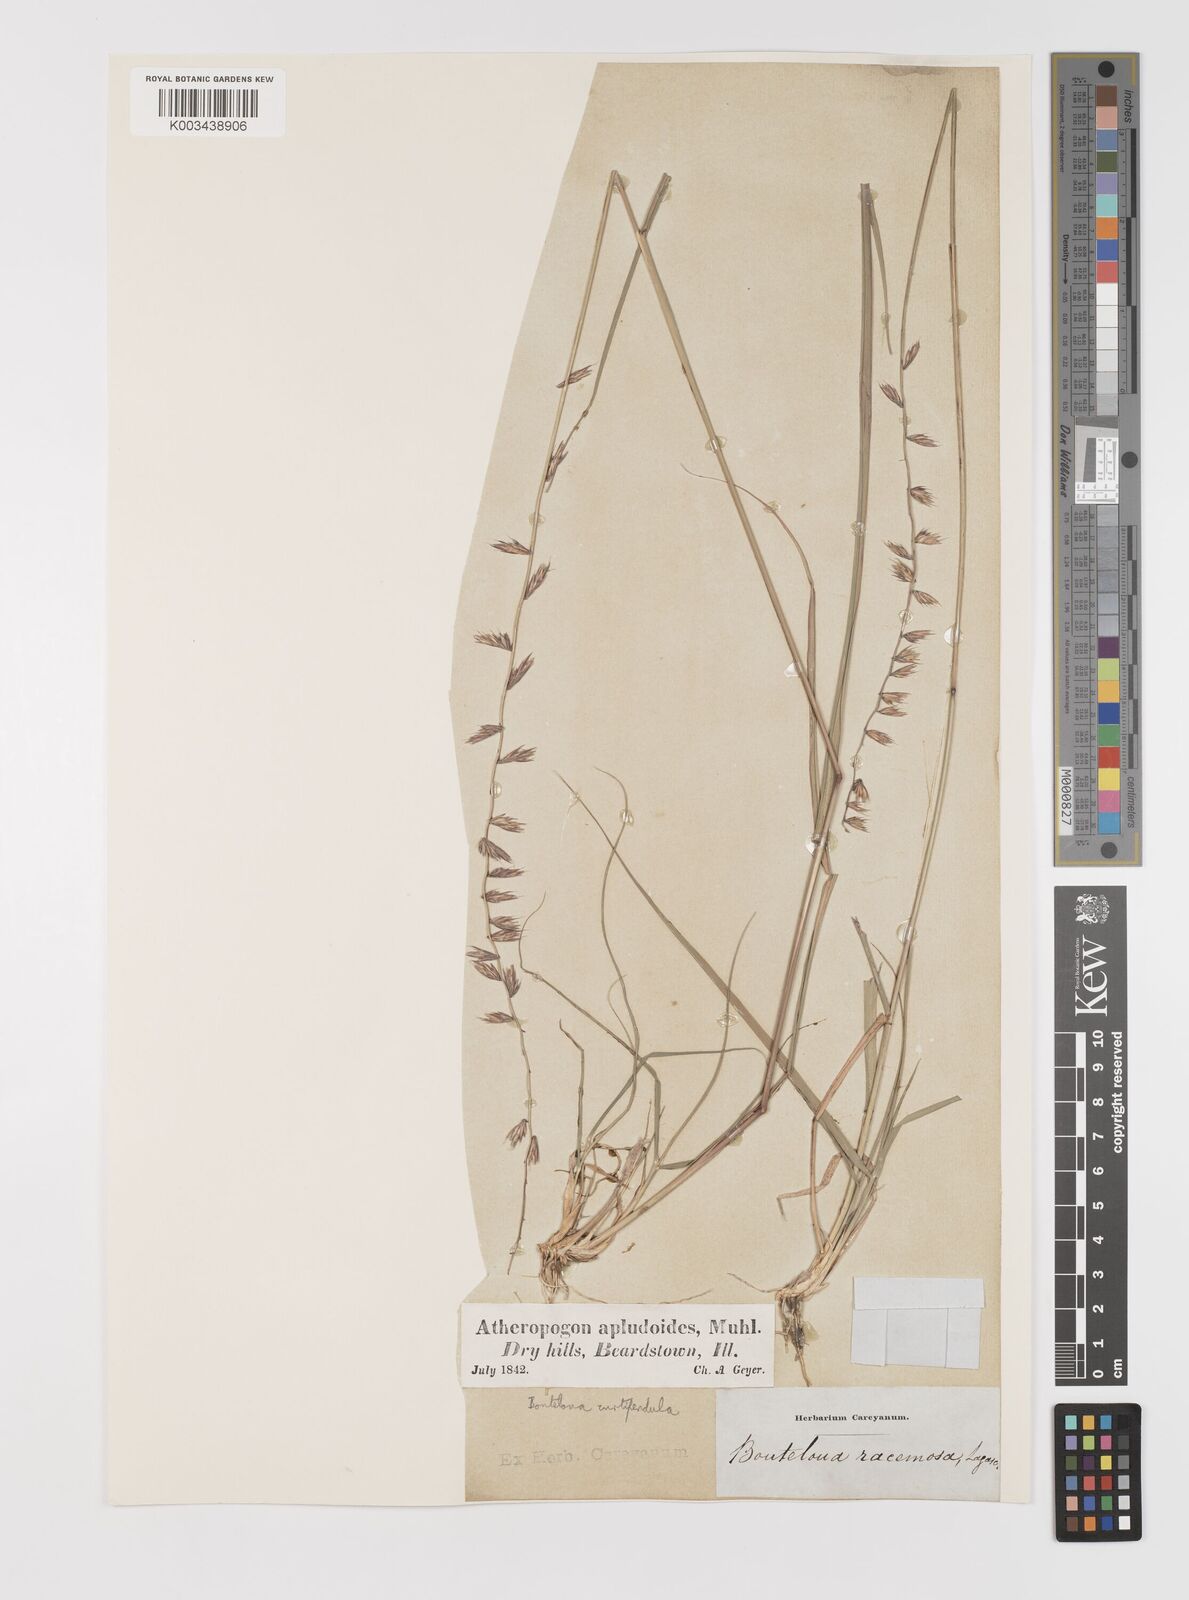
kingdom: Plantae
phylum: Tracheophyta
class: Liliopsida
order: Poales
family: Poaceae
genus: Bouteloua
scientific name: Bouteloua curtipendula
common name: Side-oats grama
